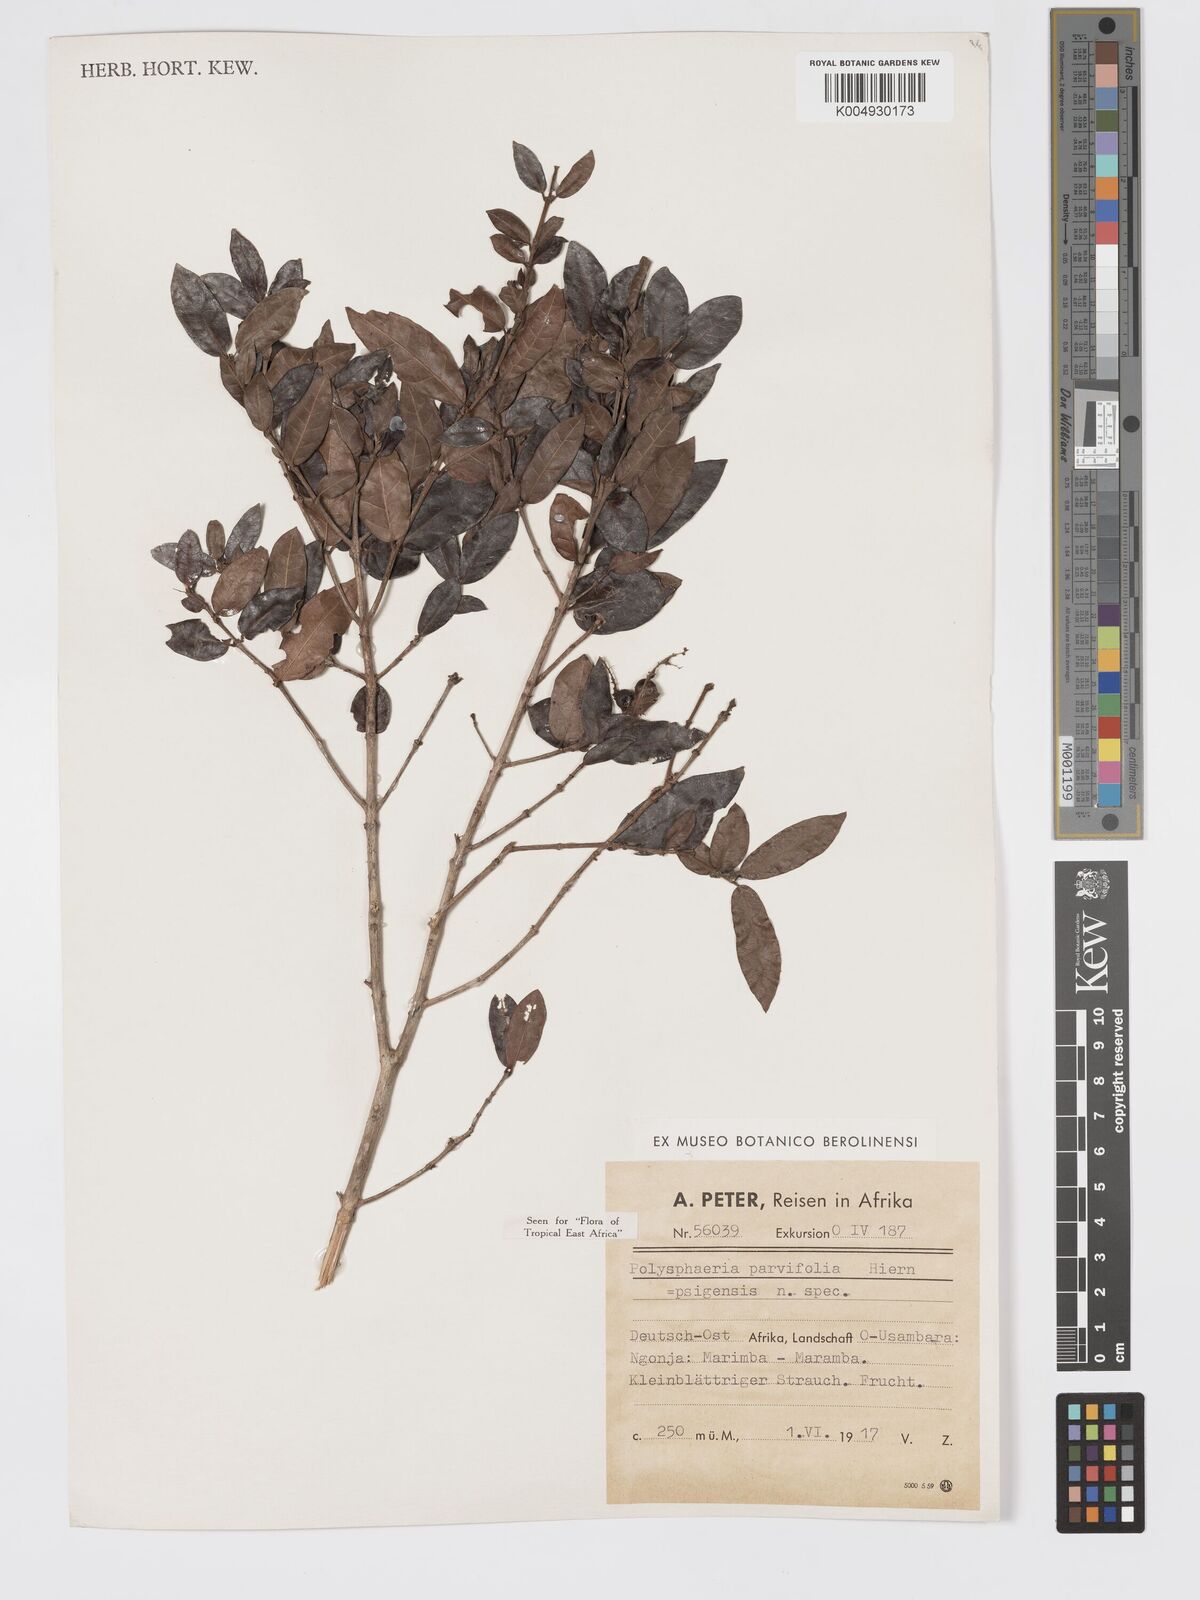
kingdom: Plantae
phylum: Tracheophyta
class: Magnoliopsida
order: Gentianales
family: Rubiaceae
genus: Polysphaeria
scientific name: Polysphaeria parvifolia
